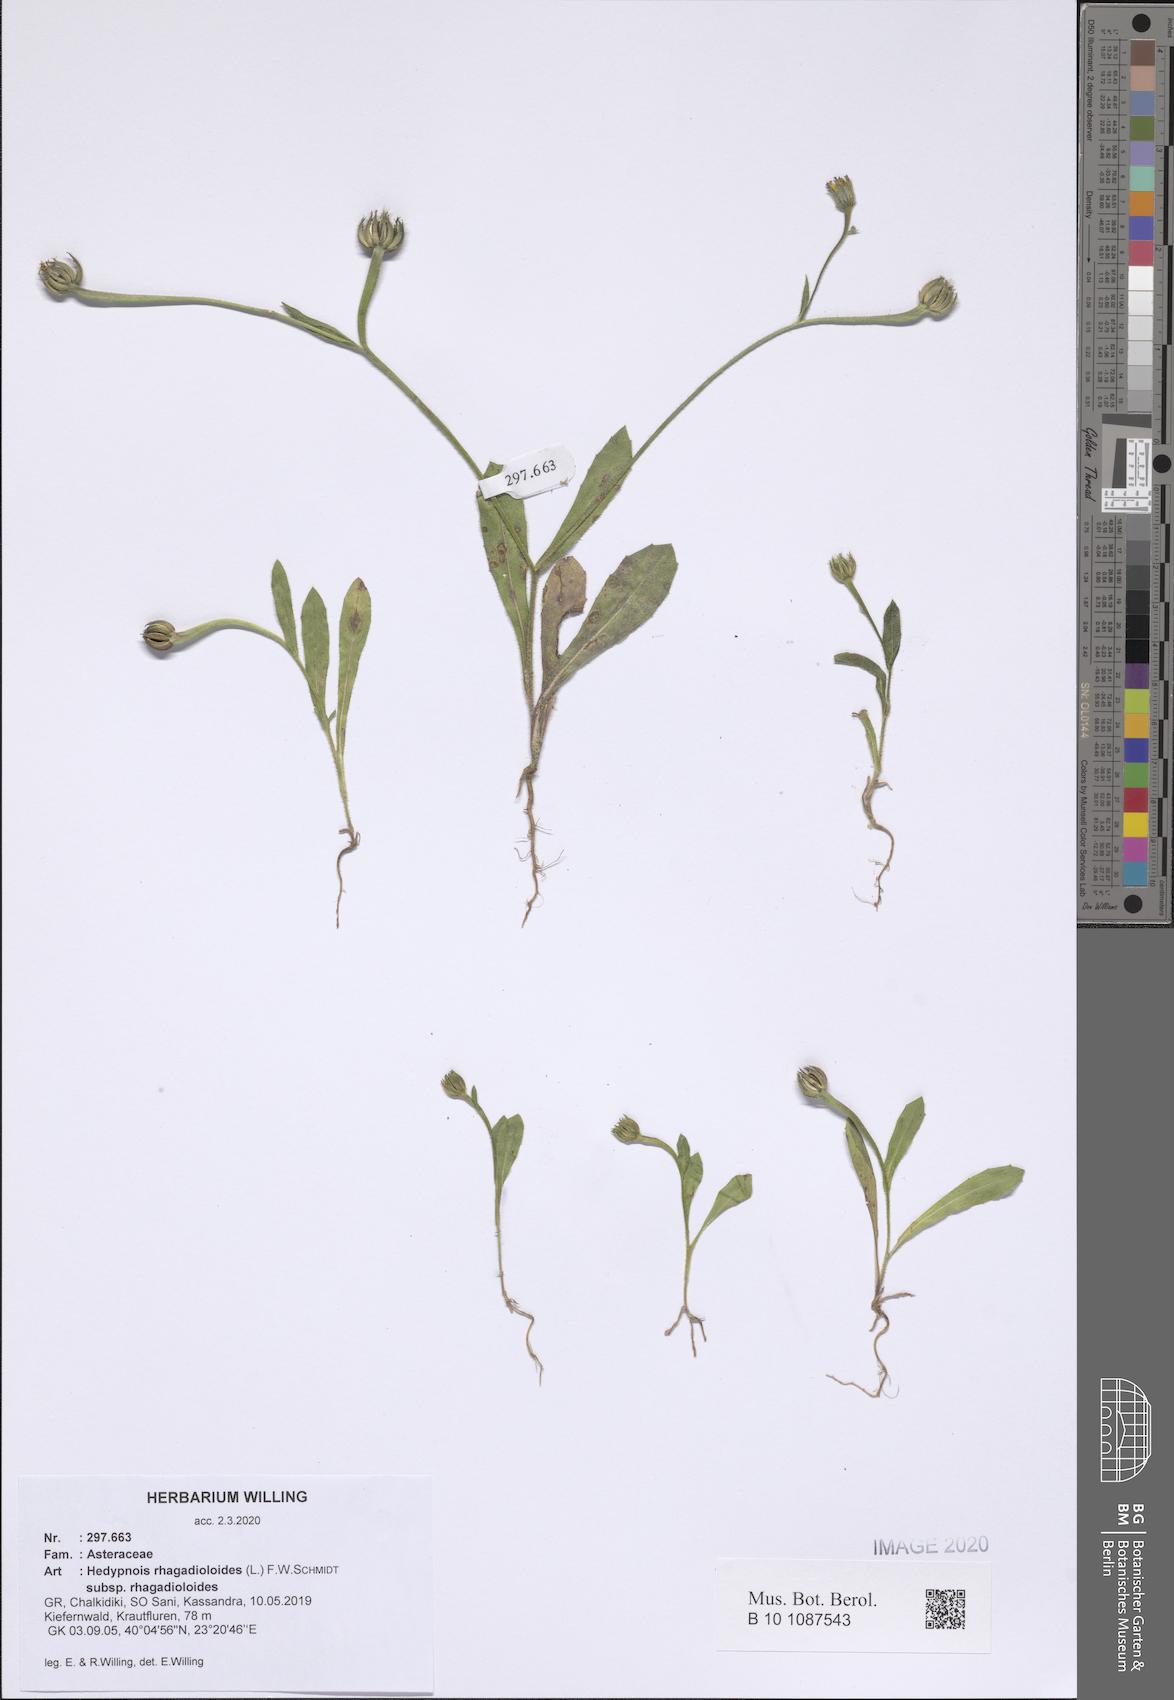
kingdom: Plantae
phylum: Tracheophyta
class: Magnoliopsida
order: Asterales
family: Asteraceae
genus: Hedypnois
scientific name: Hedypnois rhagadioloides
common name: Cretan weed
